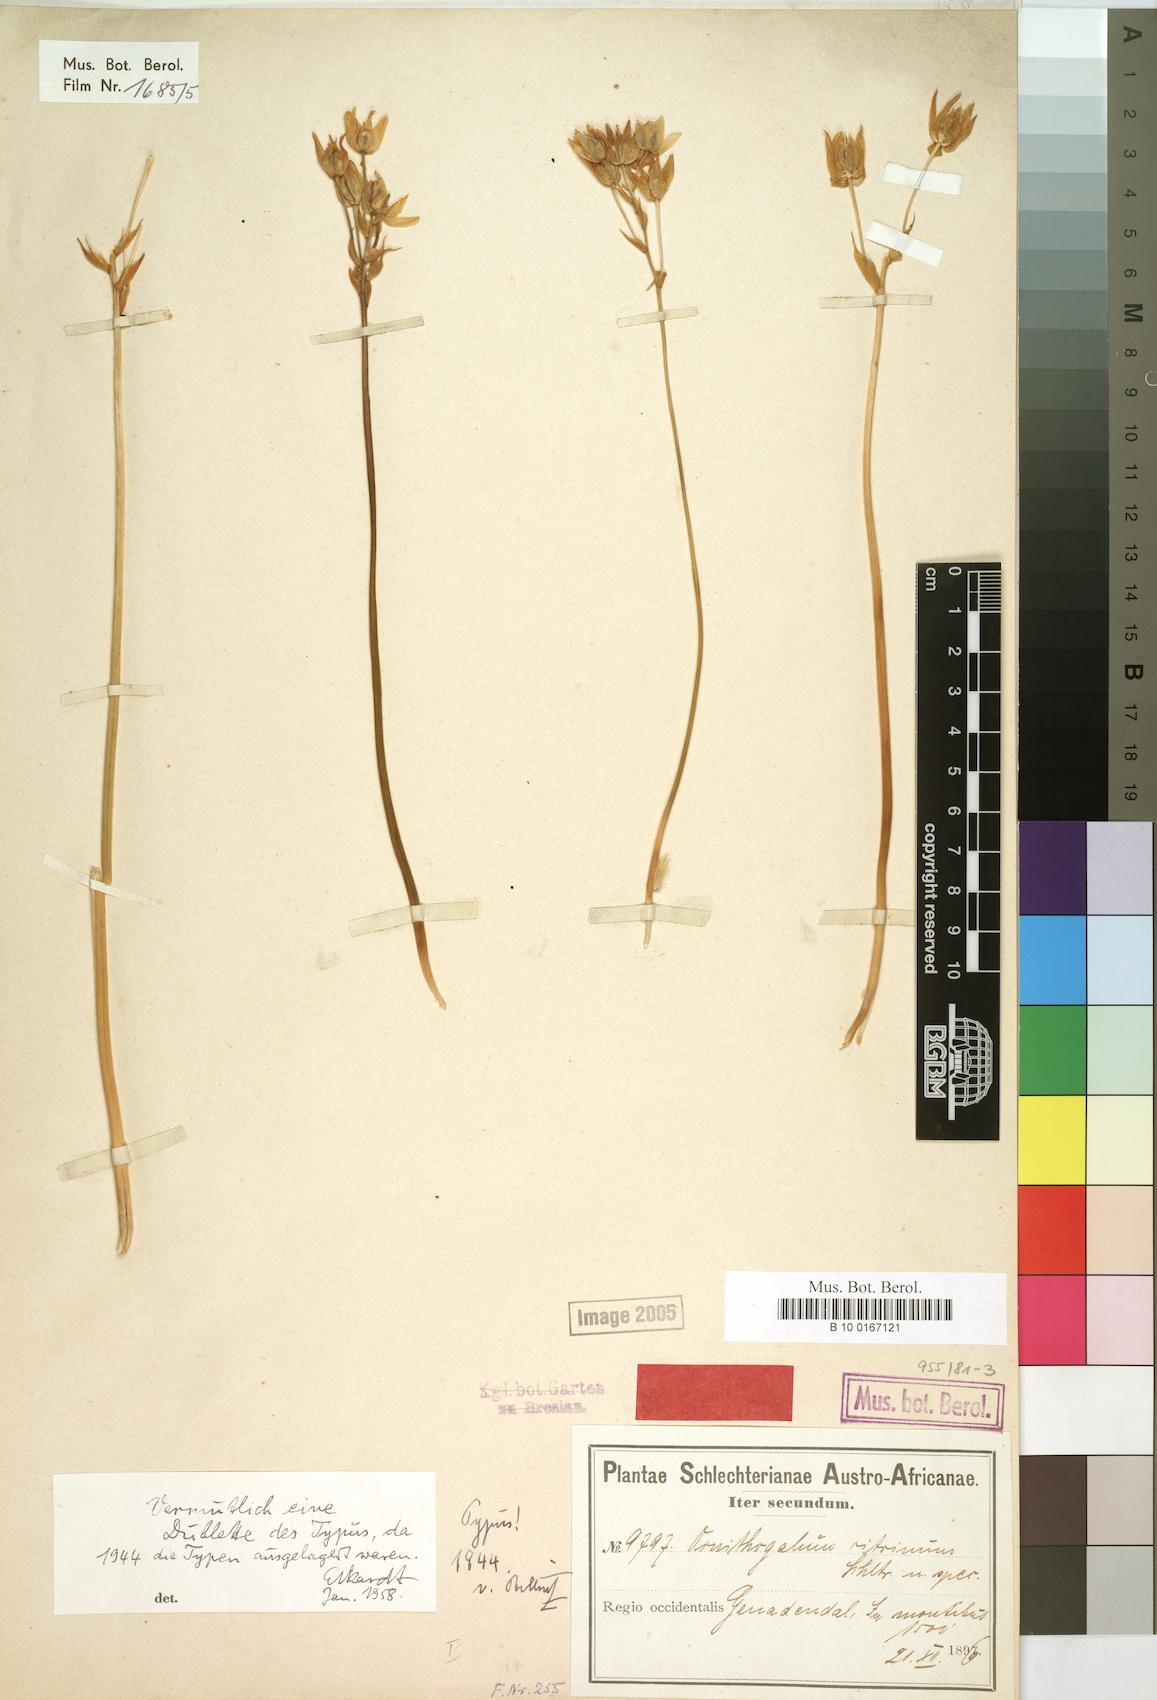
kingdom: Plantae
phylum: Tracheophyta
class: Liliopsida
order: Asparagales
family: Asparagaceae
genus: Ornithogalum
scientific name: Ornithogalum dubium
